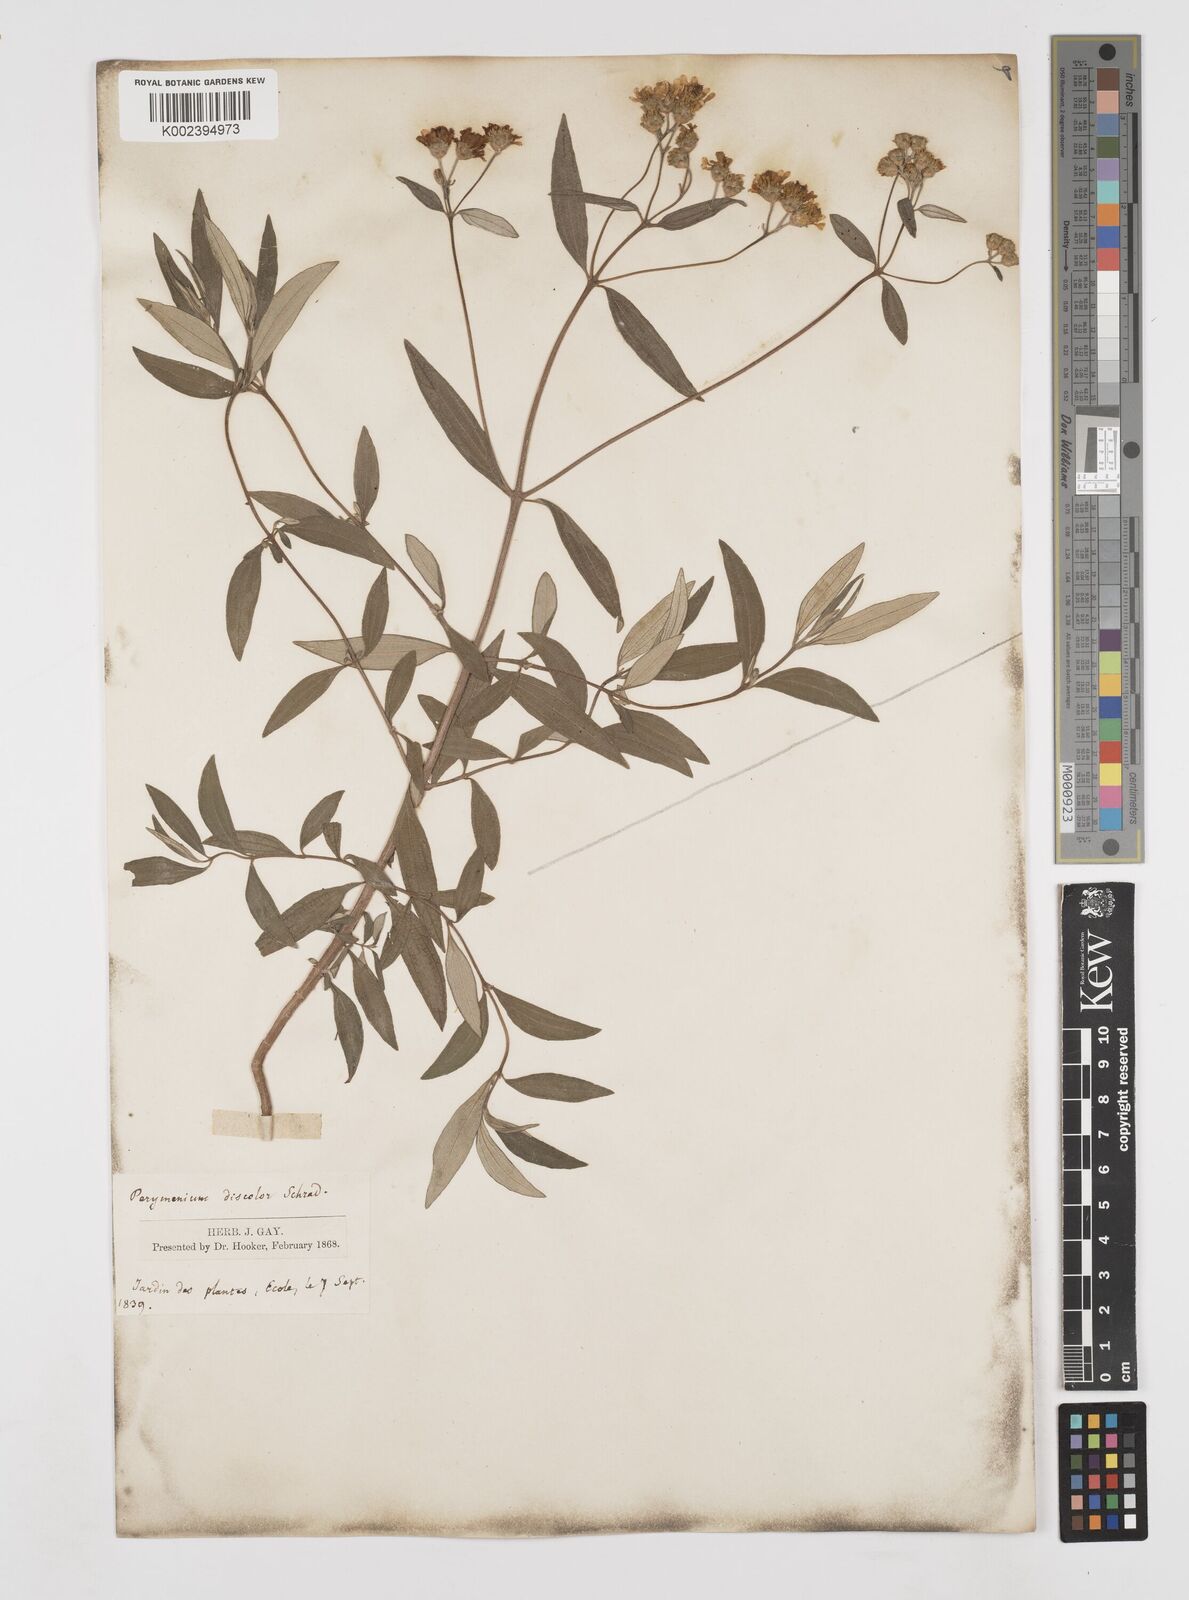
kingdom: Plantae
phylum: Tracheophyta
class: Magnoliopsida
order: Asterales
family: Asteraceae
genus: Perymenium
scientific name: Perymenium discolor
